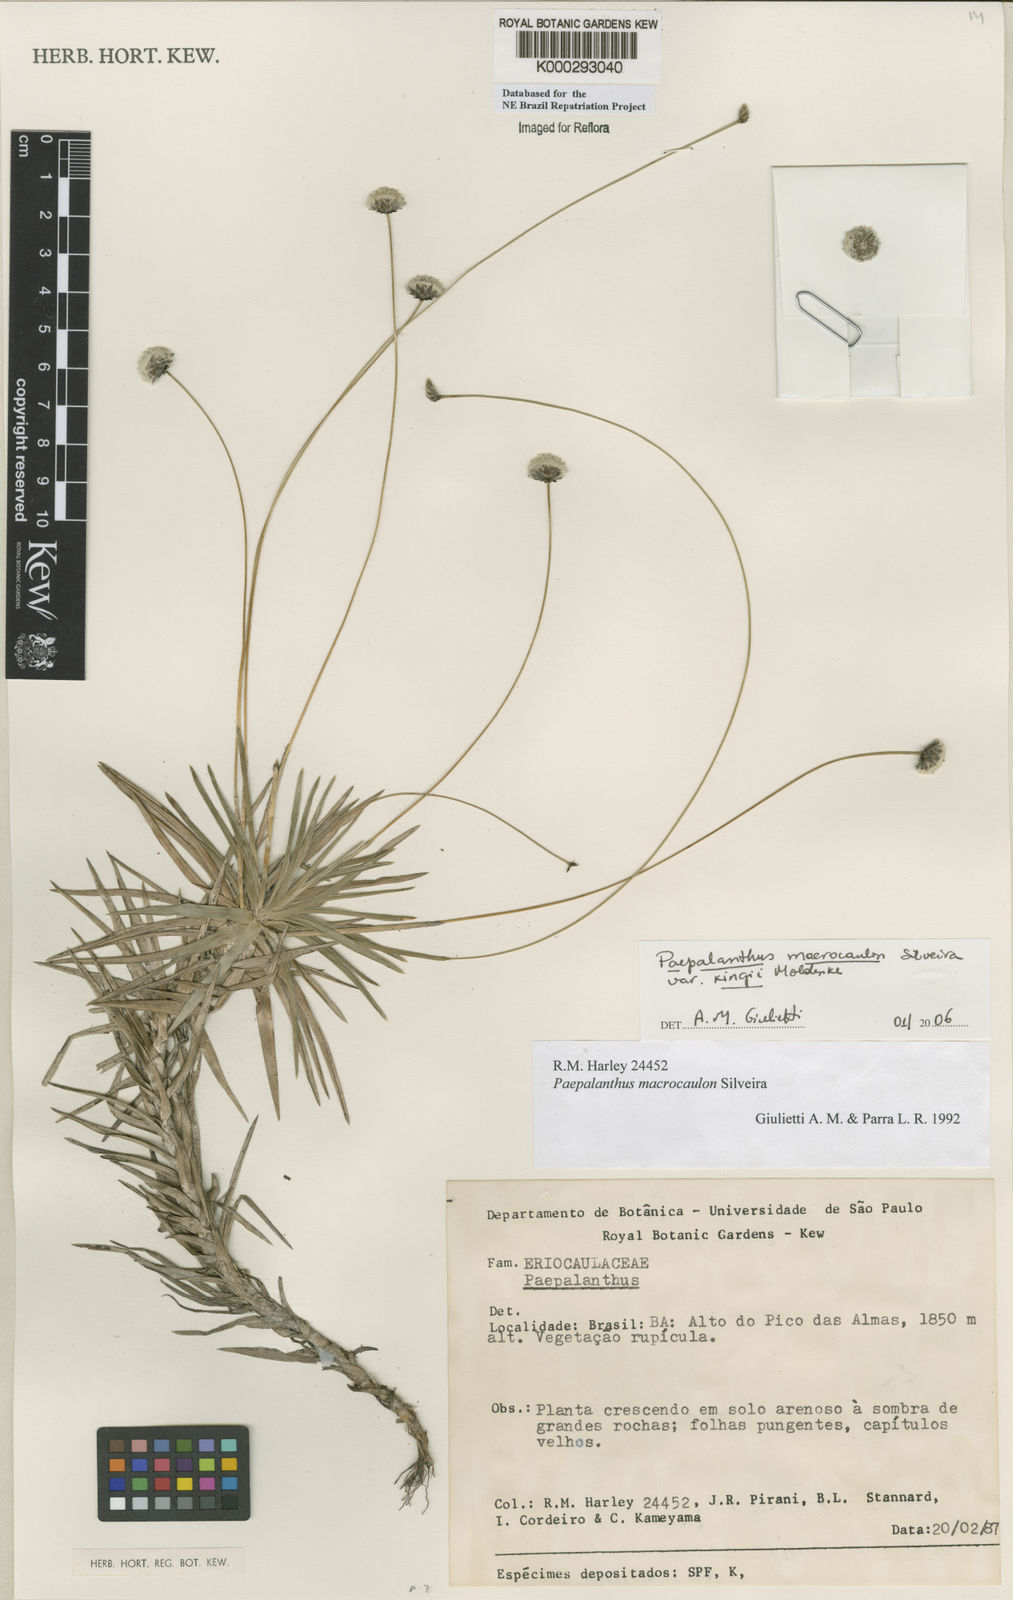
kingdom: Plantae
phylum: Tracheophyta
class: Liliopsida
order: Poales
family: Eriocaulaceae
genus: Paepalanthus
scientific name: Paepalanthus macrocaulon
